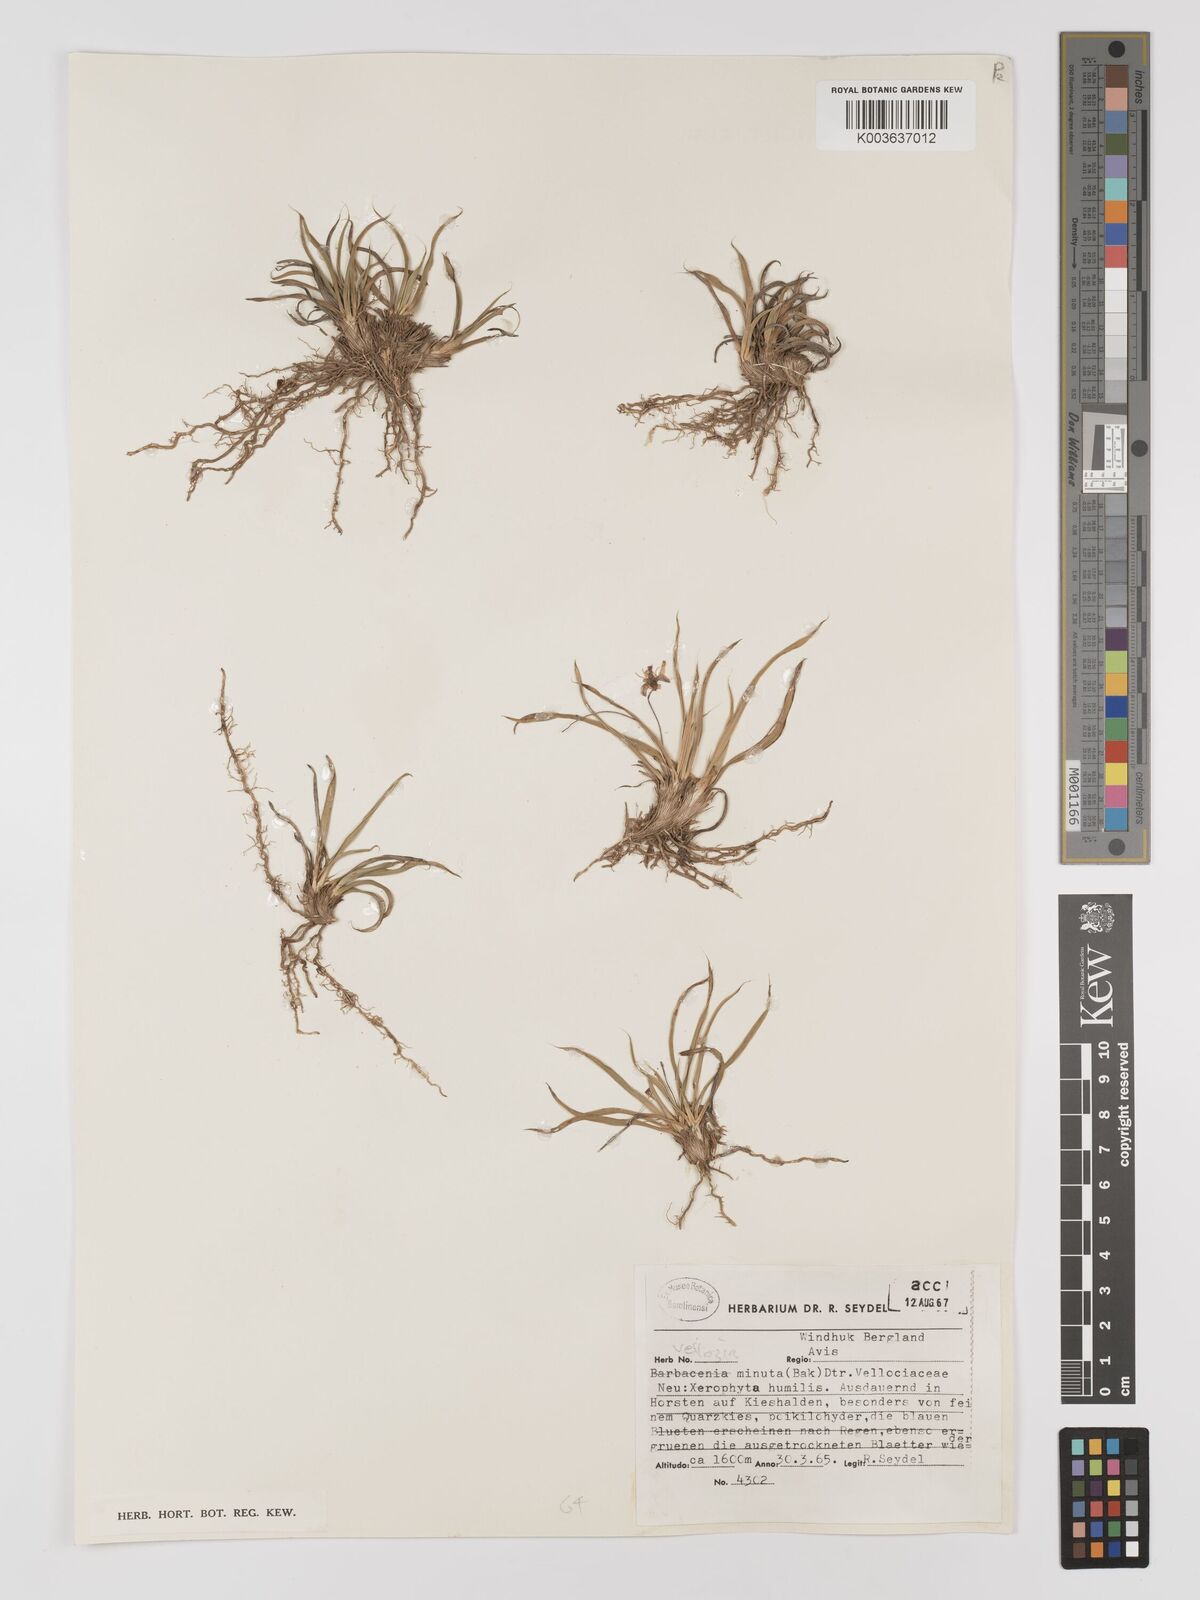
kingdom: Plantae
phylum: Tracheophyta
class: Liliopsida
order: Pandanales
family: Velloziaceae
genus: Xerophyta
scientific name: Xerophyta humilis
